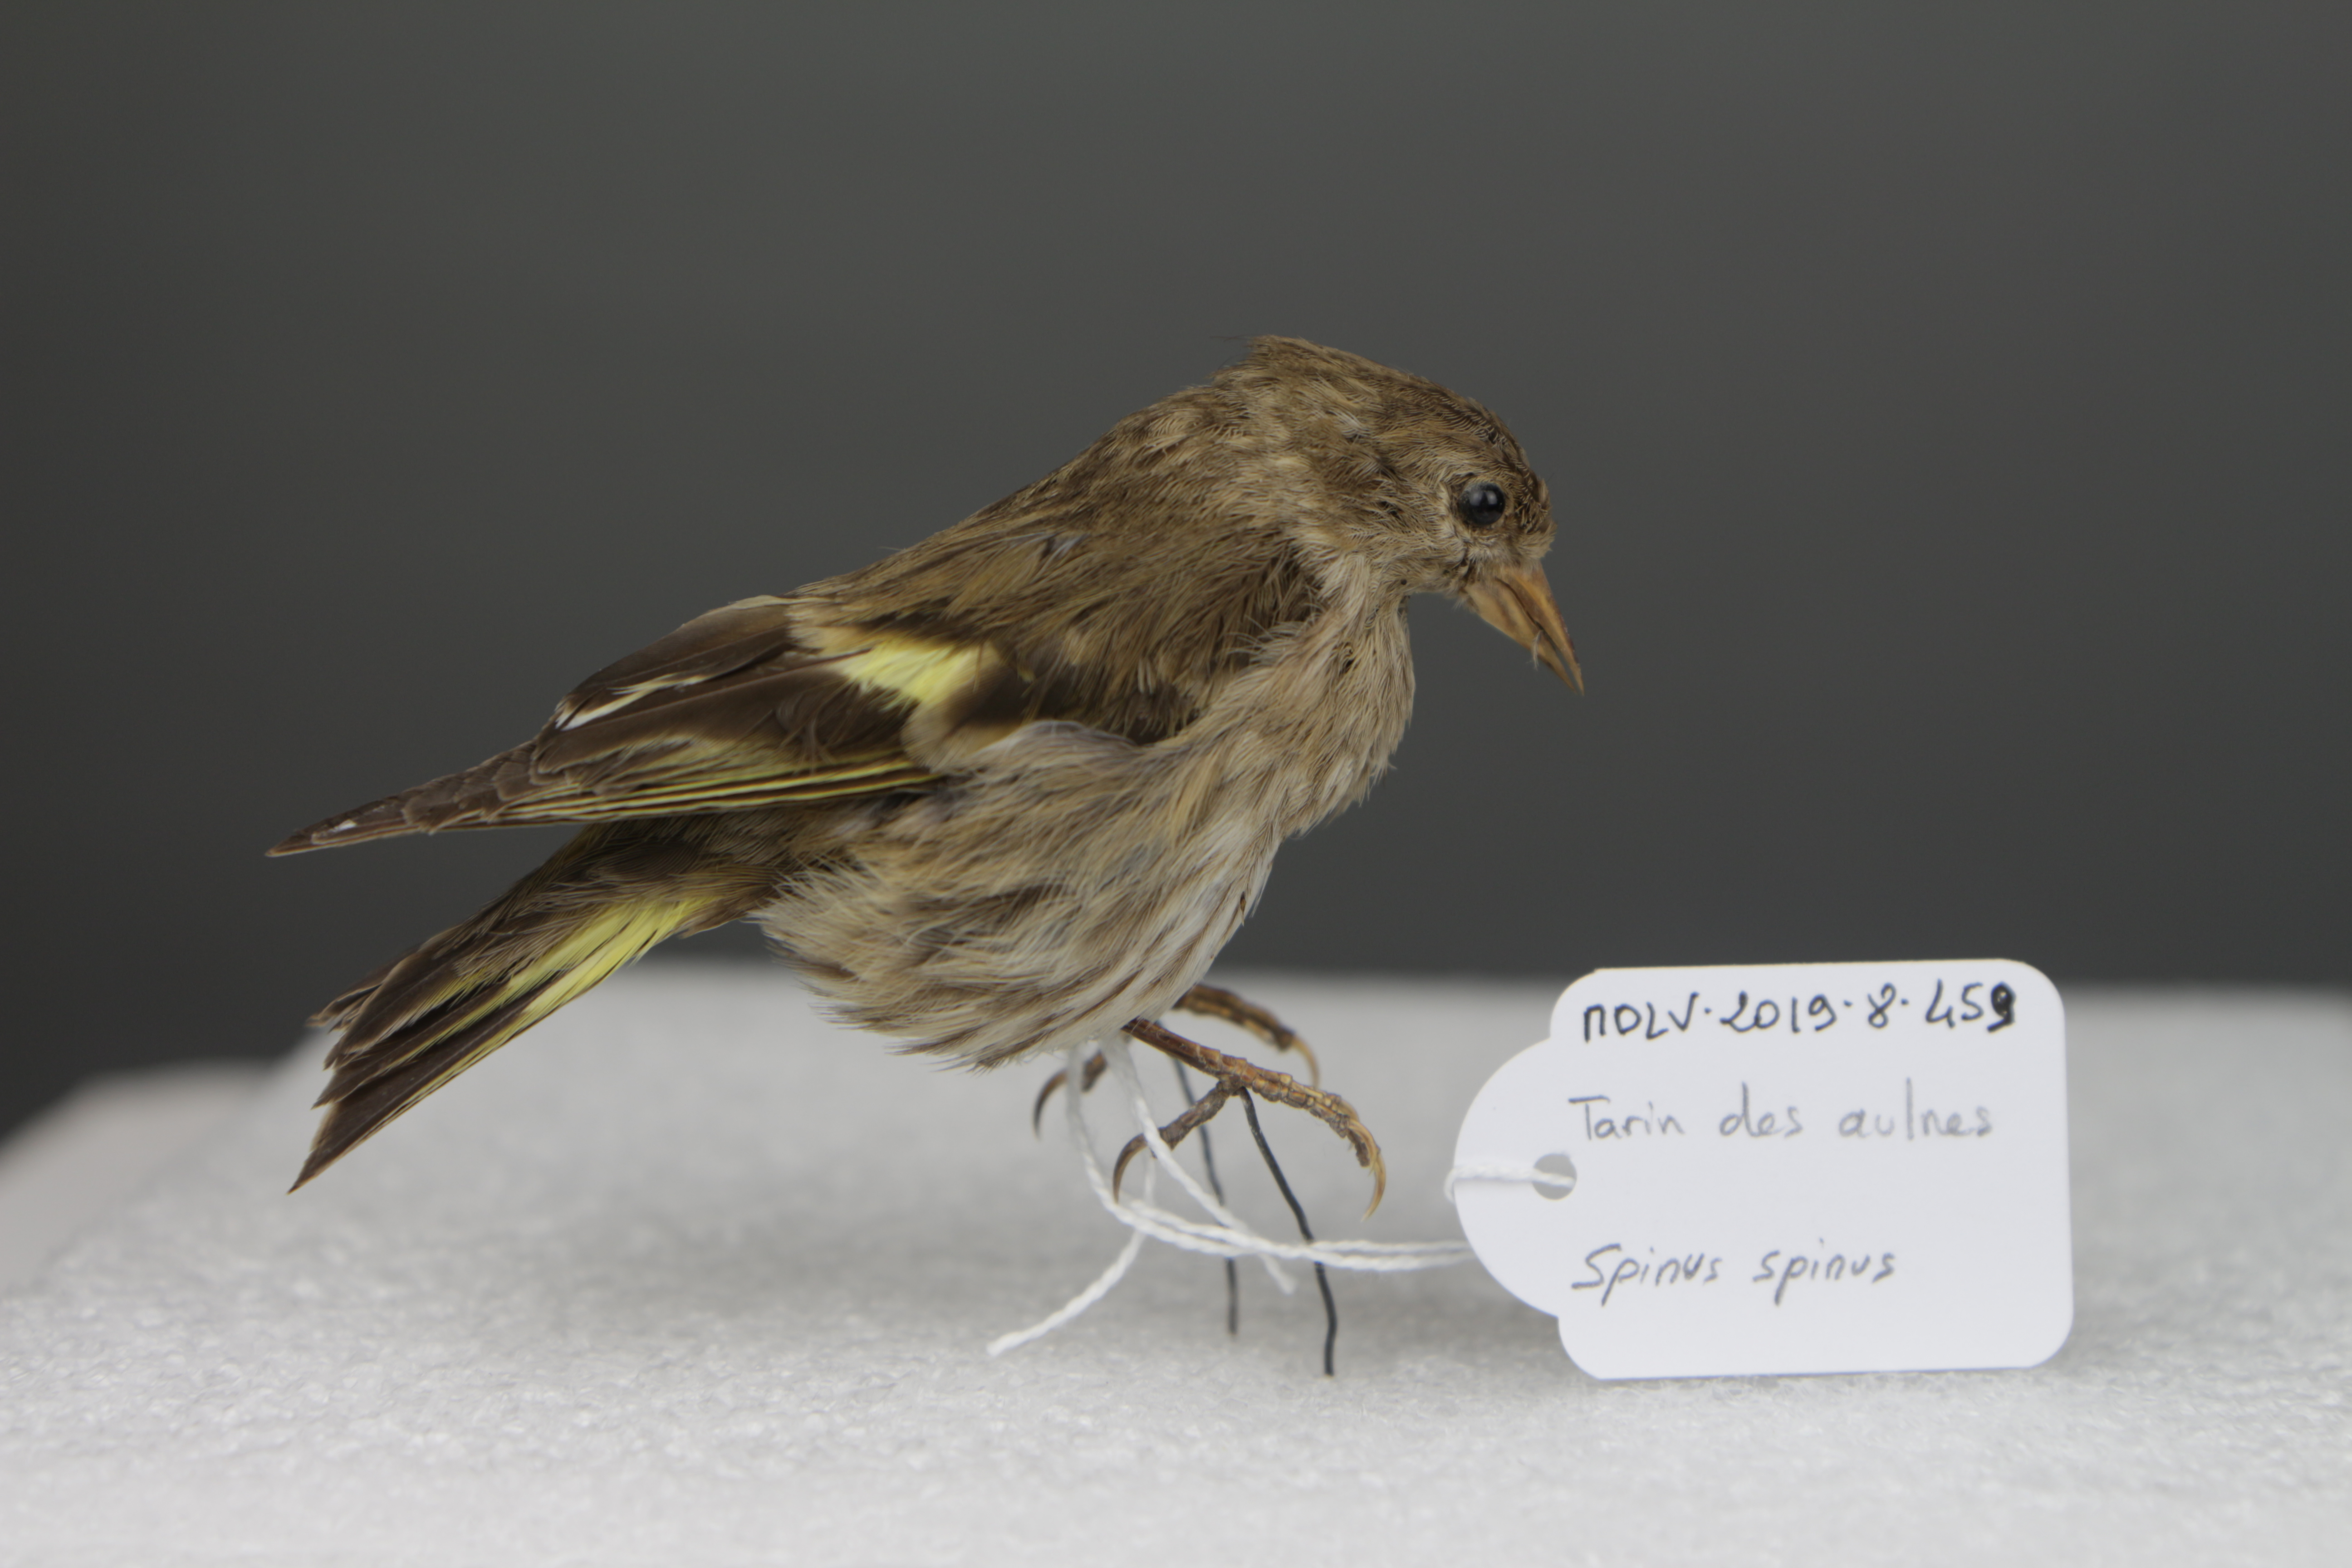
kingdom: Animalia
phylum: Chordata
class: Aves
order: Passeriformes
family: Fringillidae
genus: Spinus
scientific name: Spinus spinus
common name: Eurasian siskin
